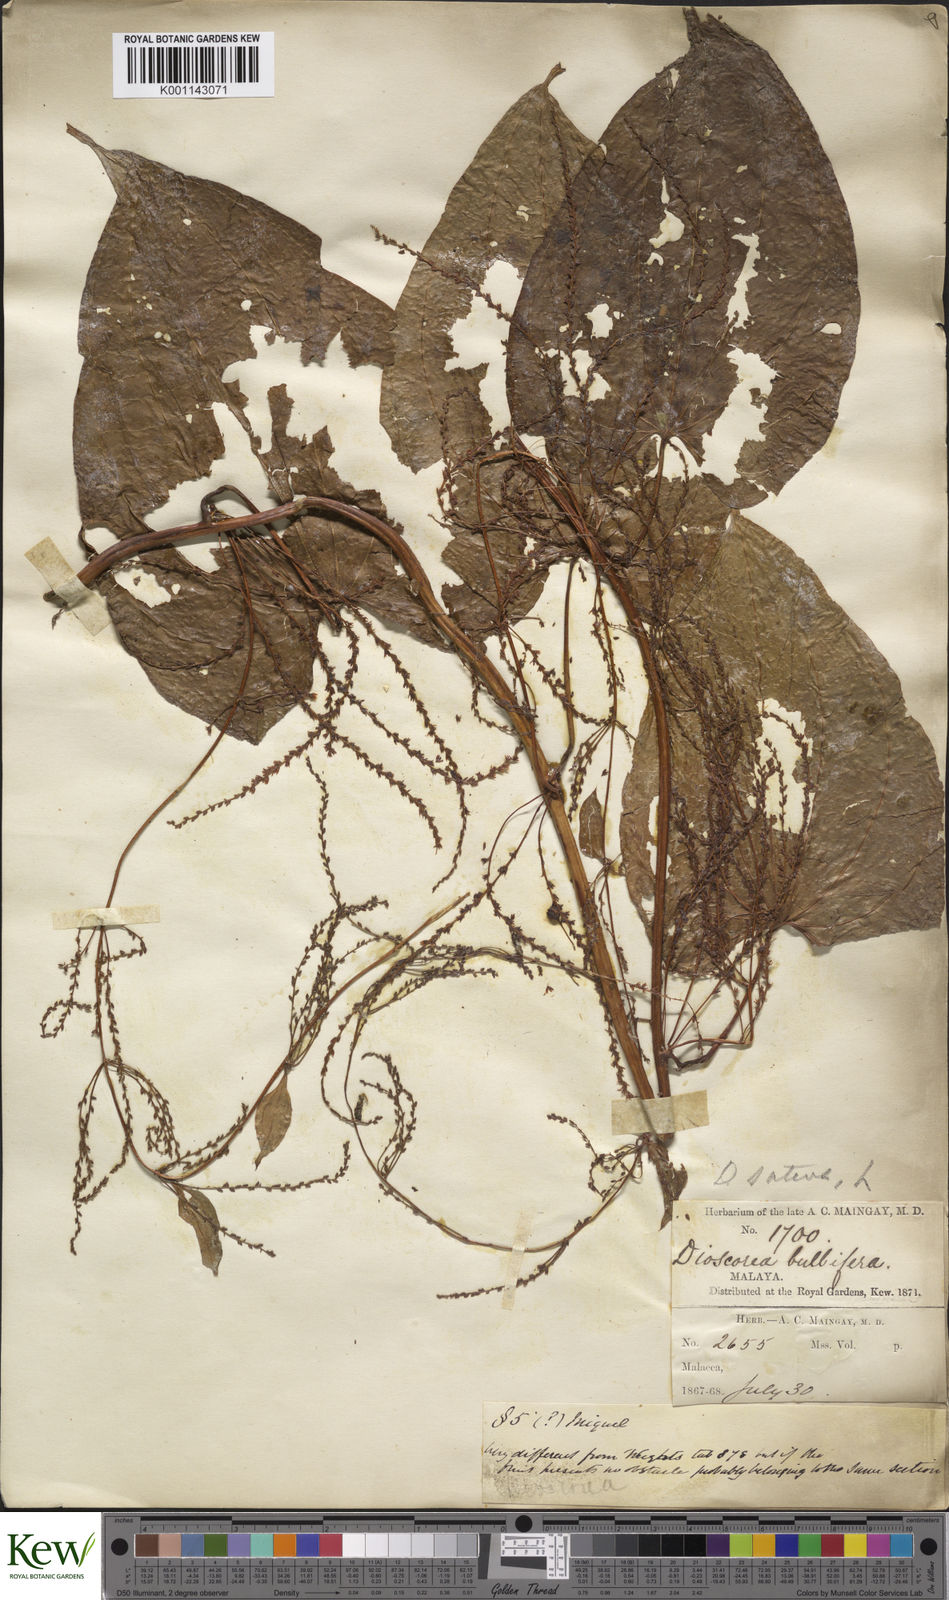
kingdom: Plantae
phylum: Tracheophyta
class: Liliopsida
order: Dioscoreales
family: Dioscoreaceae
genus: Dioscorea
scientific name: Dioscorea bulbifera
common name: Air yam
